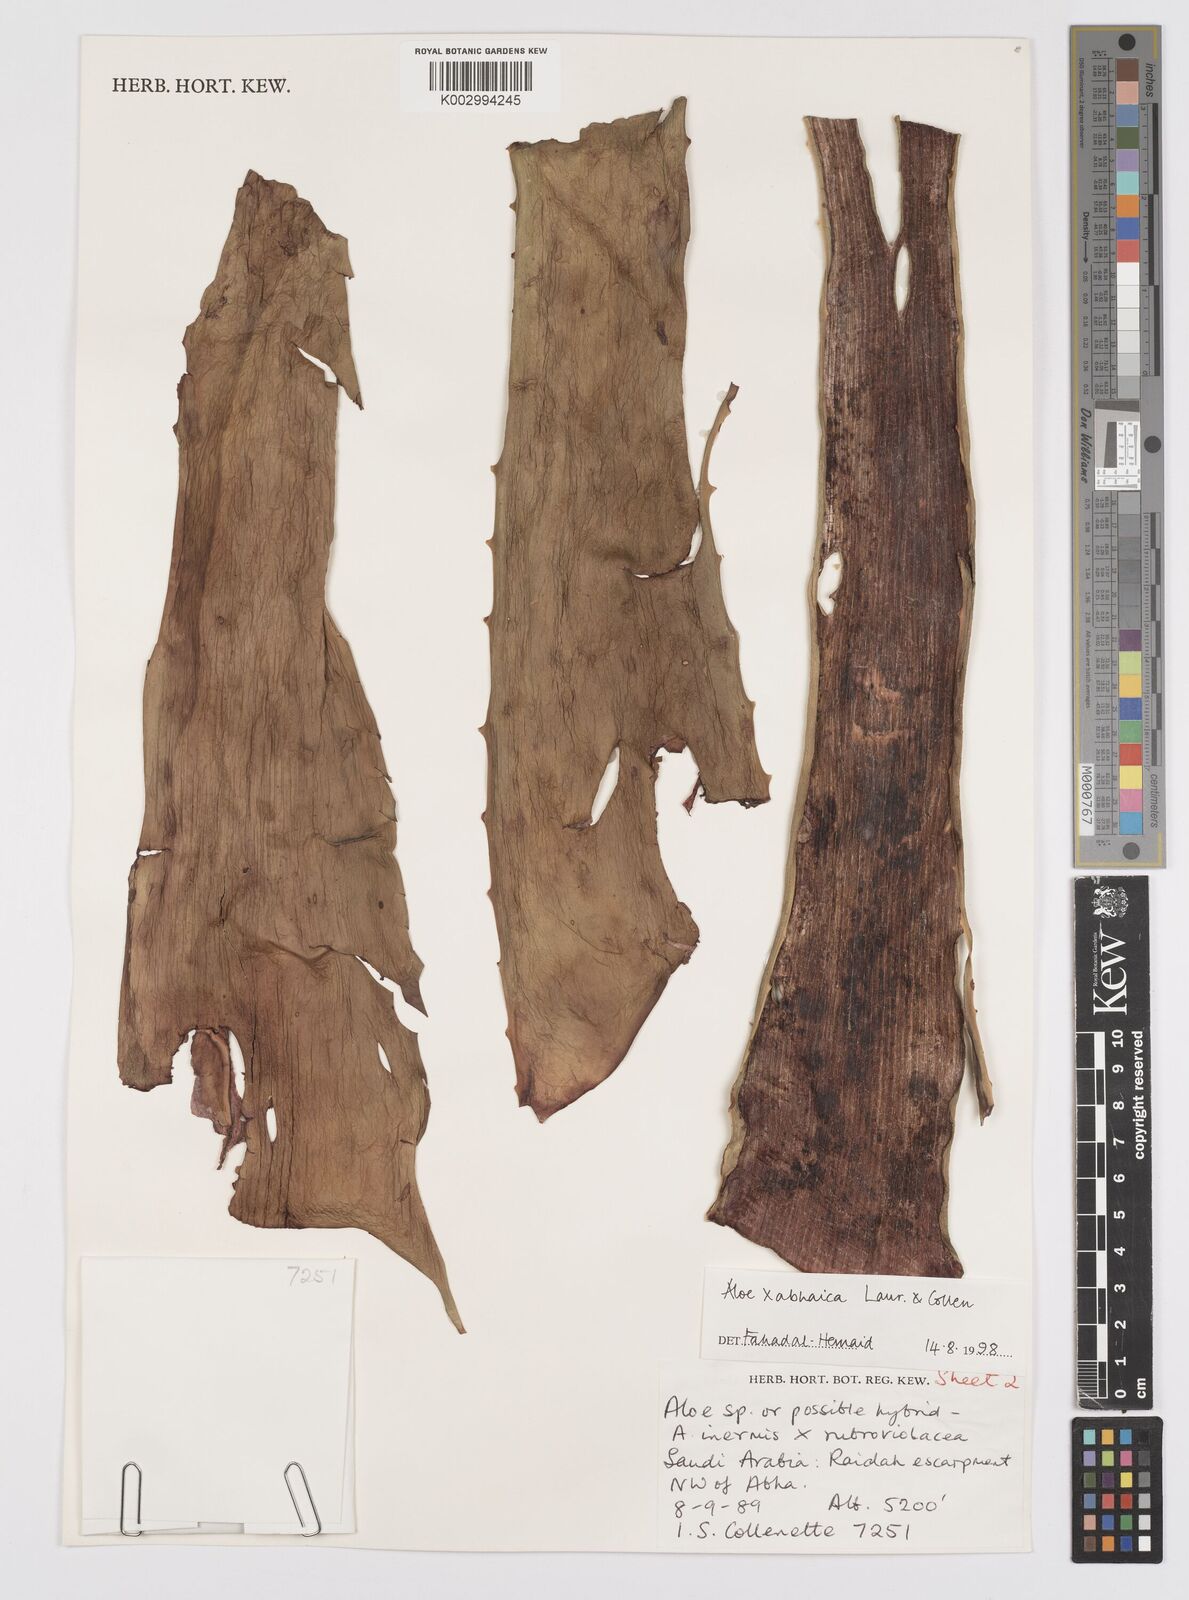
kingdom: Plantae
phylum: Tracheophyta
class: Liliopsida
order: Asparagales
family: Asphodelaceae
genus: Aloe
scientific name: Aloe
